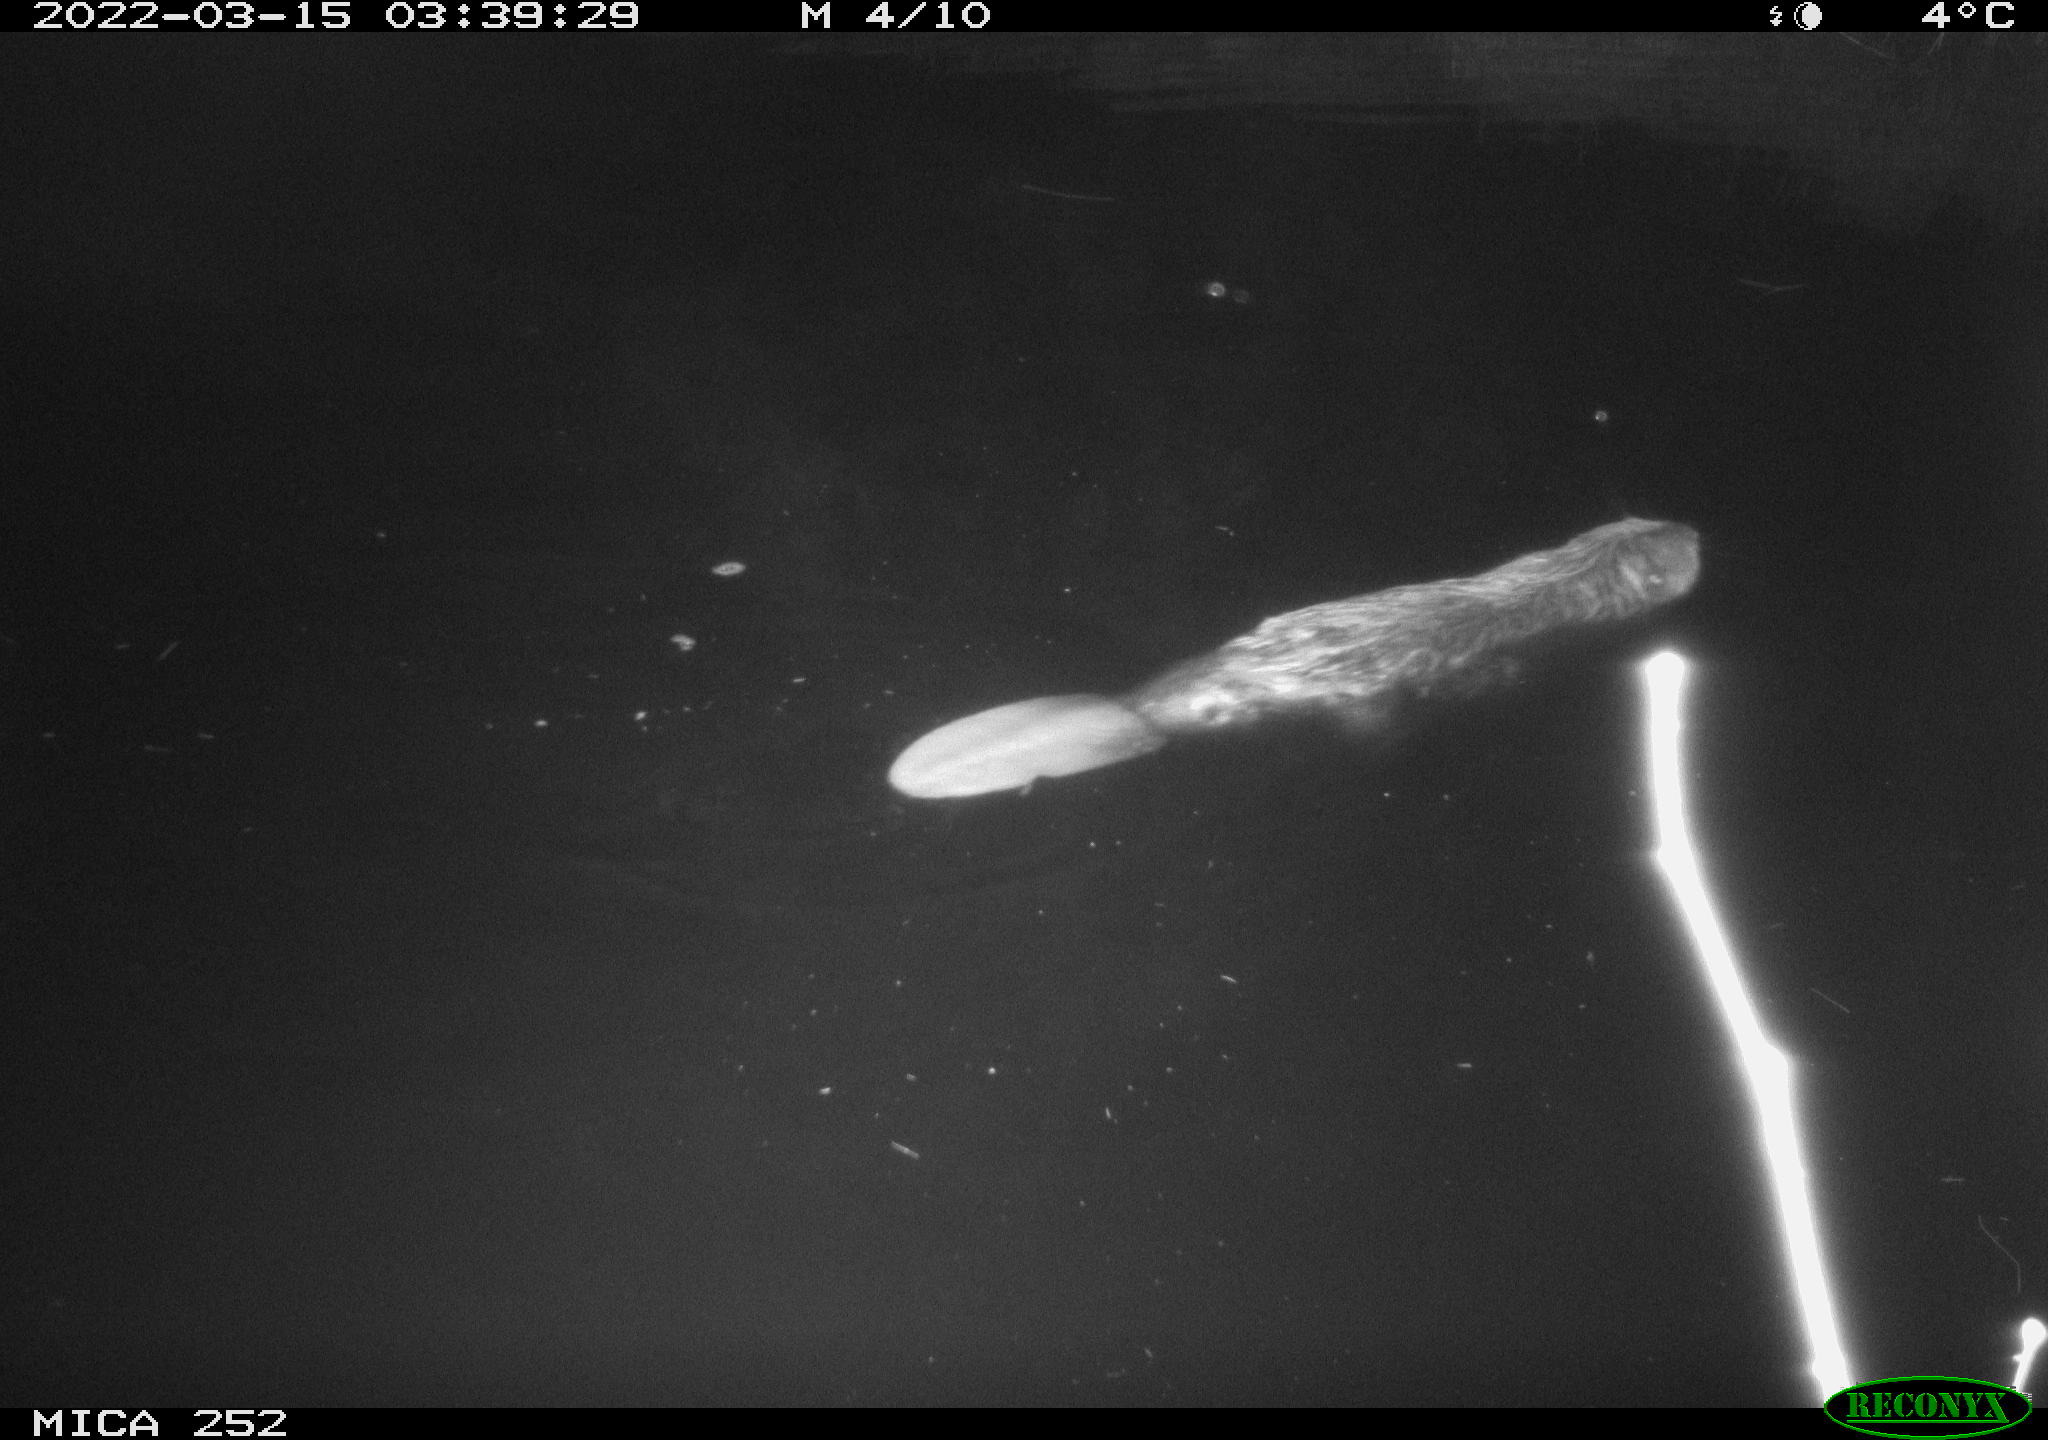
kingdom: Animalia
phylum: Chordata
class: Mammalia
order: Rodentia
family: Castoridae
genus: Castor
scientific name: Castor fiber
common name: Eurasian beaver
